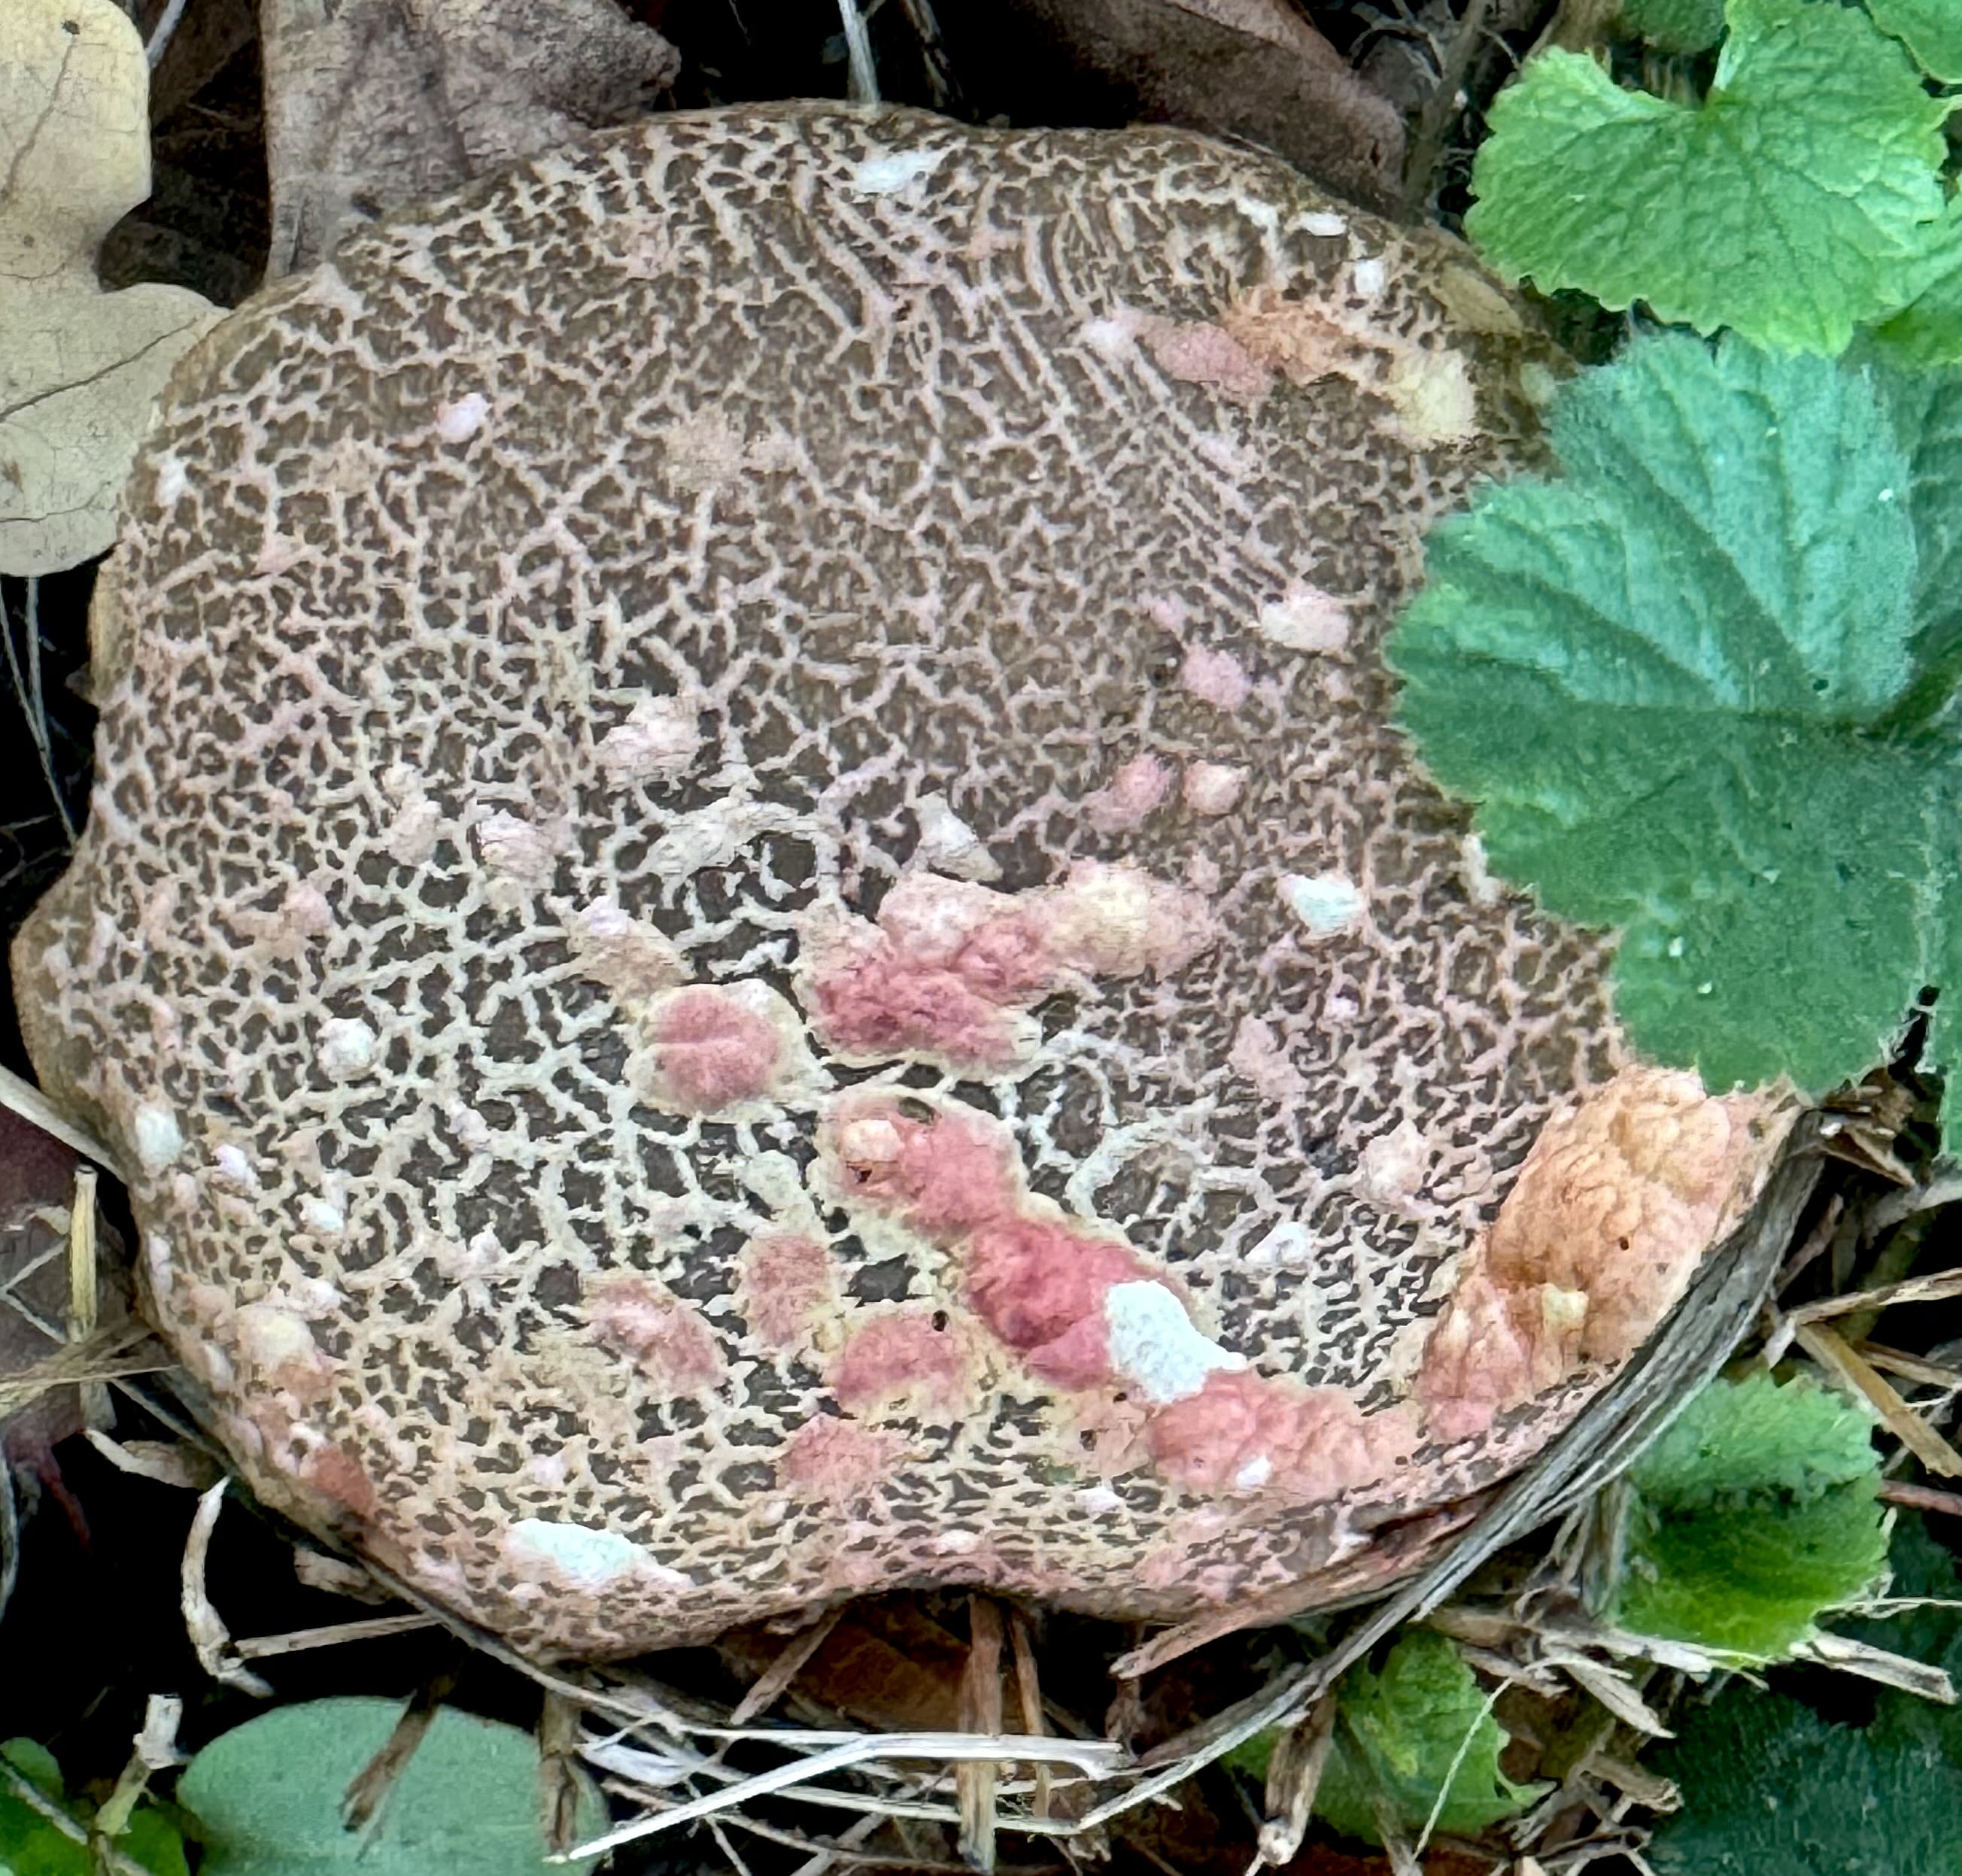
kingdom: Fungi
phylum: Basidiomycota
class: Agaricomycetes
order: Boletales
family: Boletaceae
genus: Xerocomellus
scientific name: Xerocomellus chrysenteron
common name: rødsprukken rørhat
